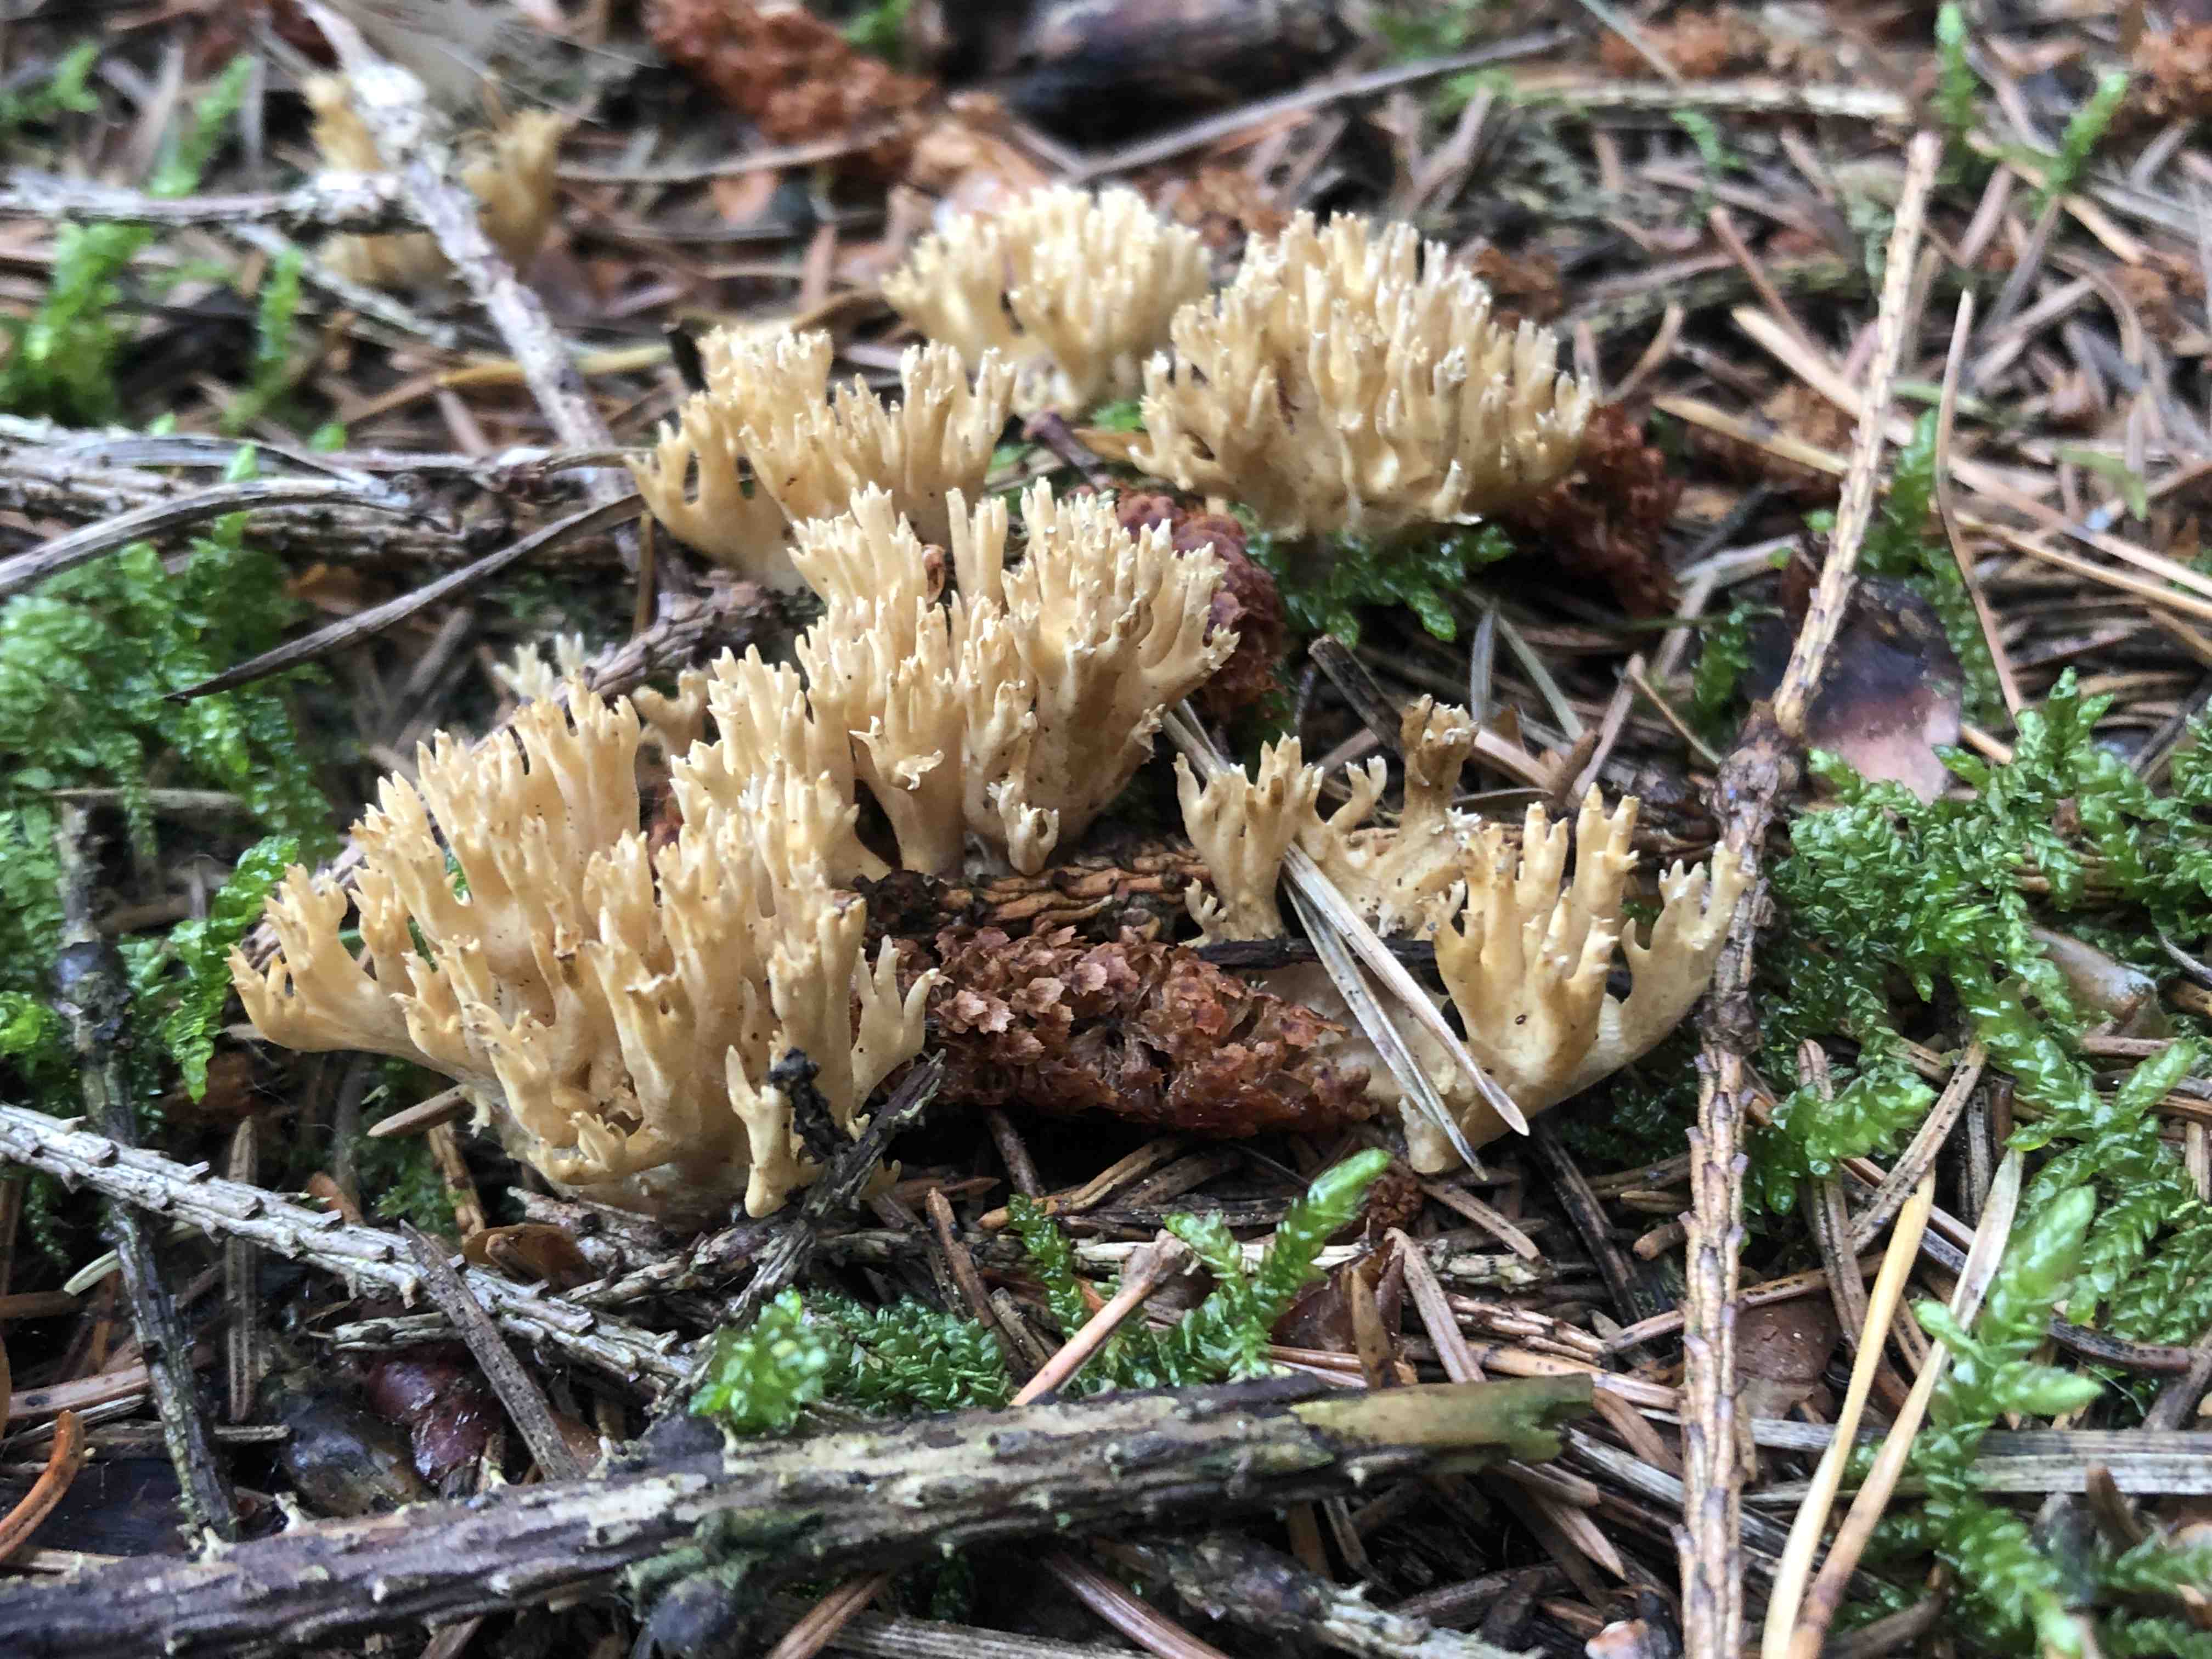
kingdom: Fungi
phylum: Basidiomycota
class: Agaricomycetes
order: Gomphales
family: Gomphaceae
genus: Phaeoclavulina
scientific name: Phaeoclavulina eumorpha
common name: gran-koralsvamp
